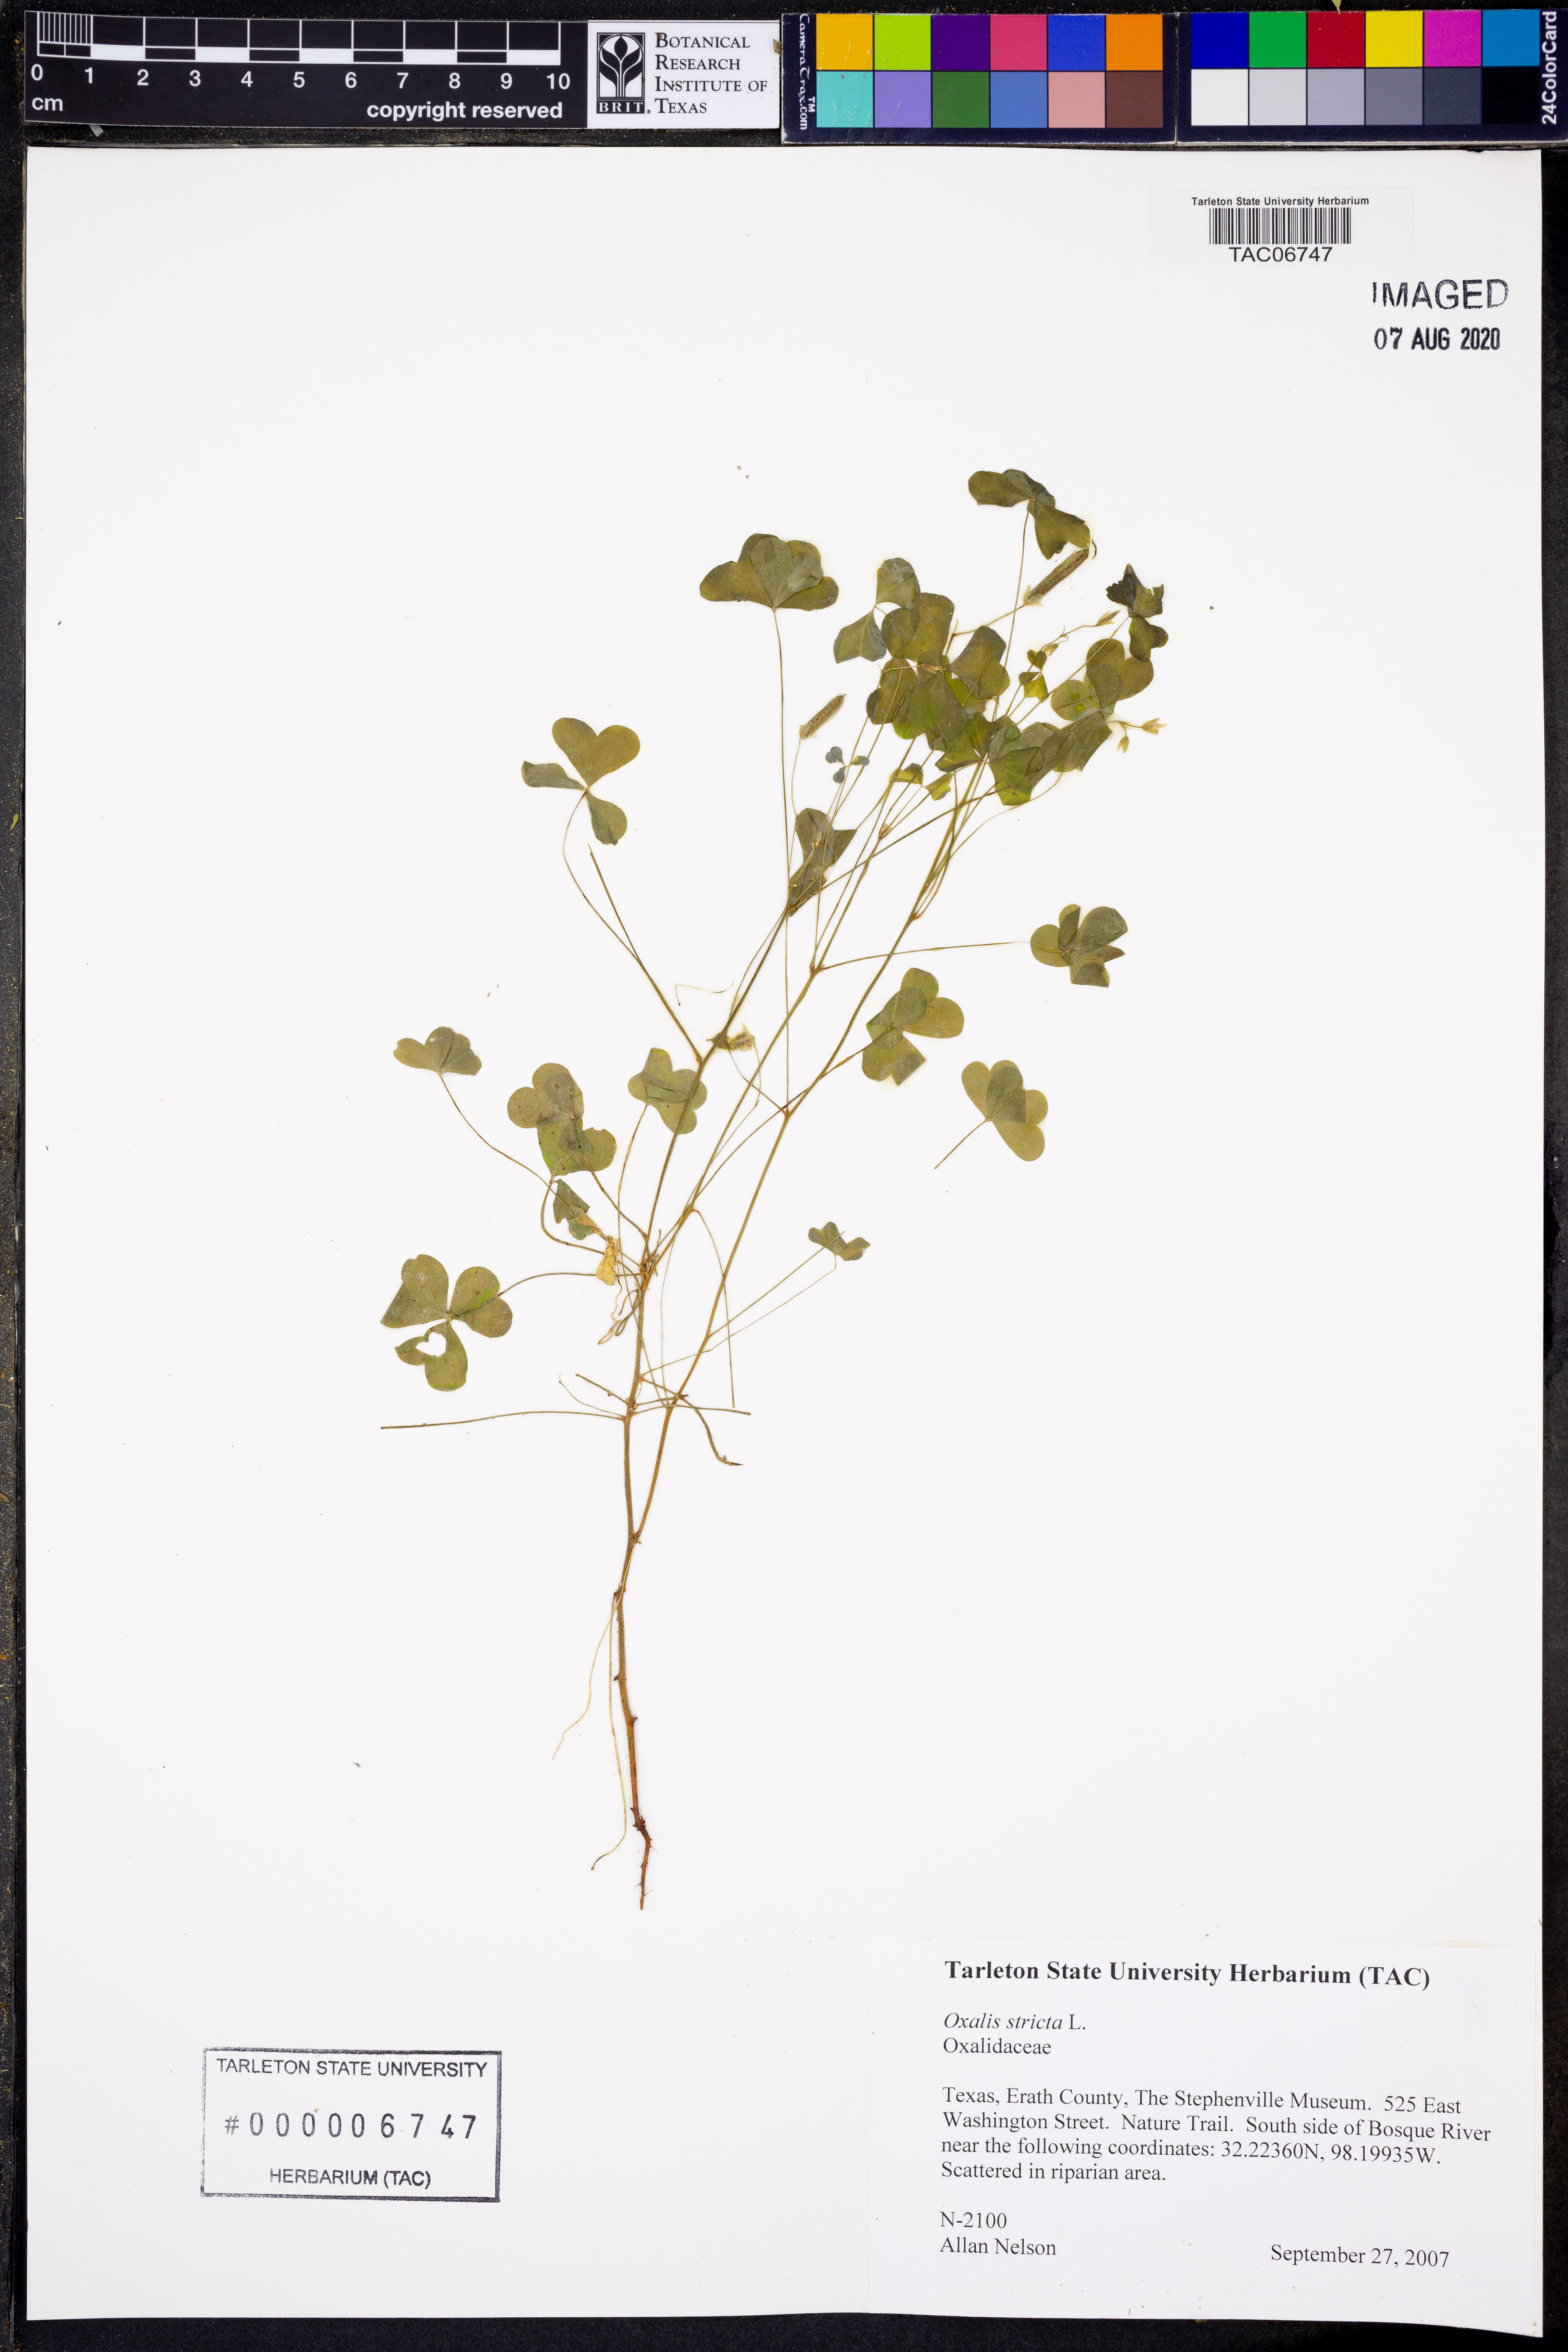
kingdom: Plantae
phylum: Tracheophyta
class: Magnoliopsida
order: Oxalidales
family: Oxalidaceae
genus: Oxalis
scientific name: Oxalis stricta
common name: Upright yellow-sorrel
